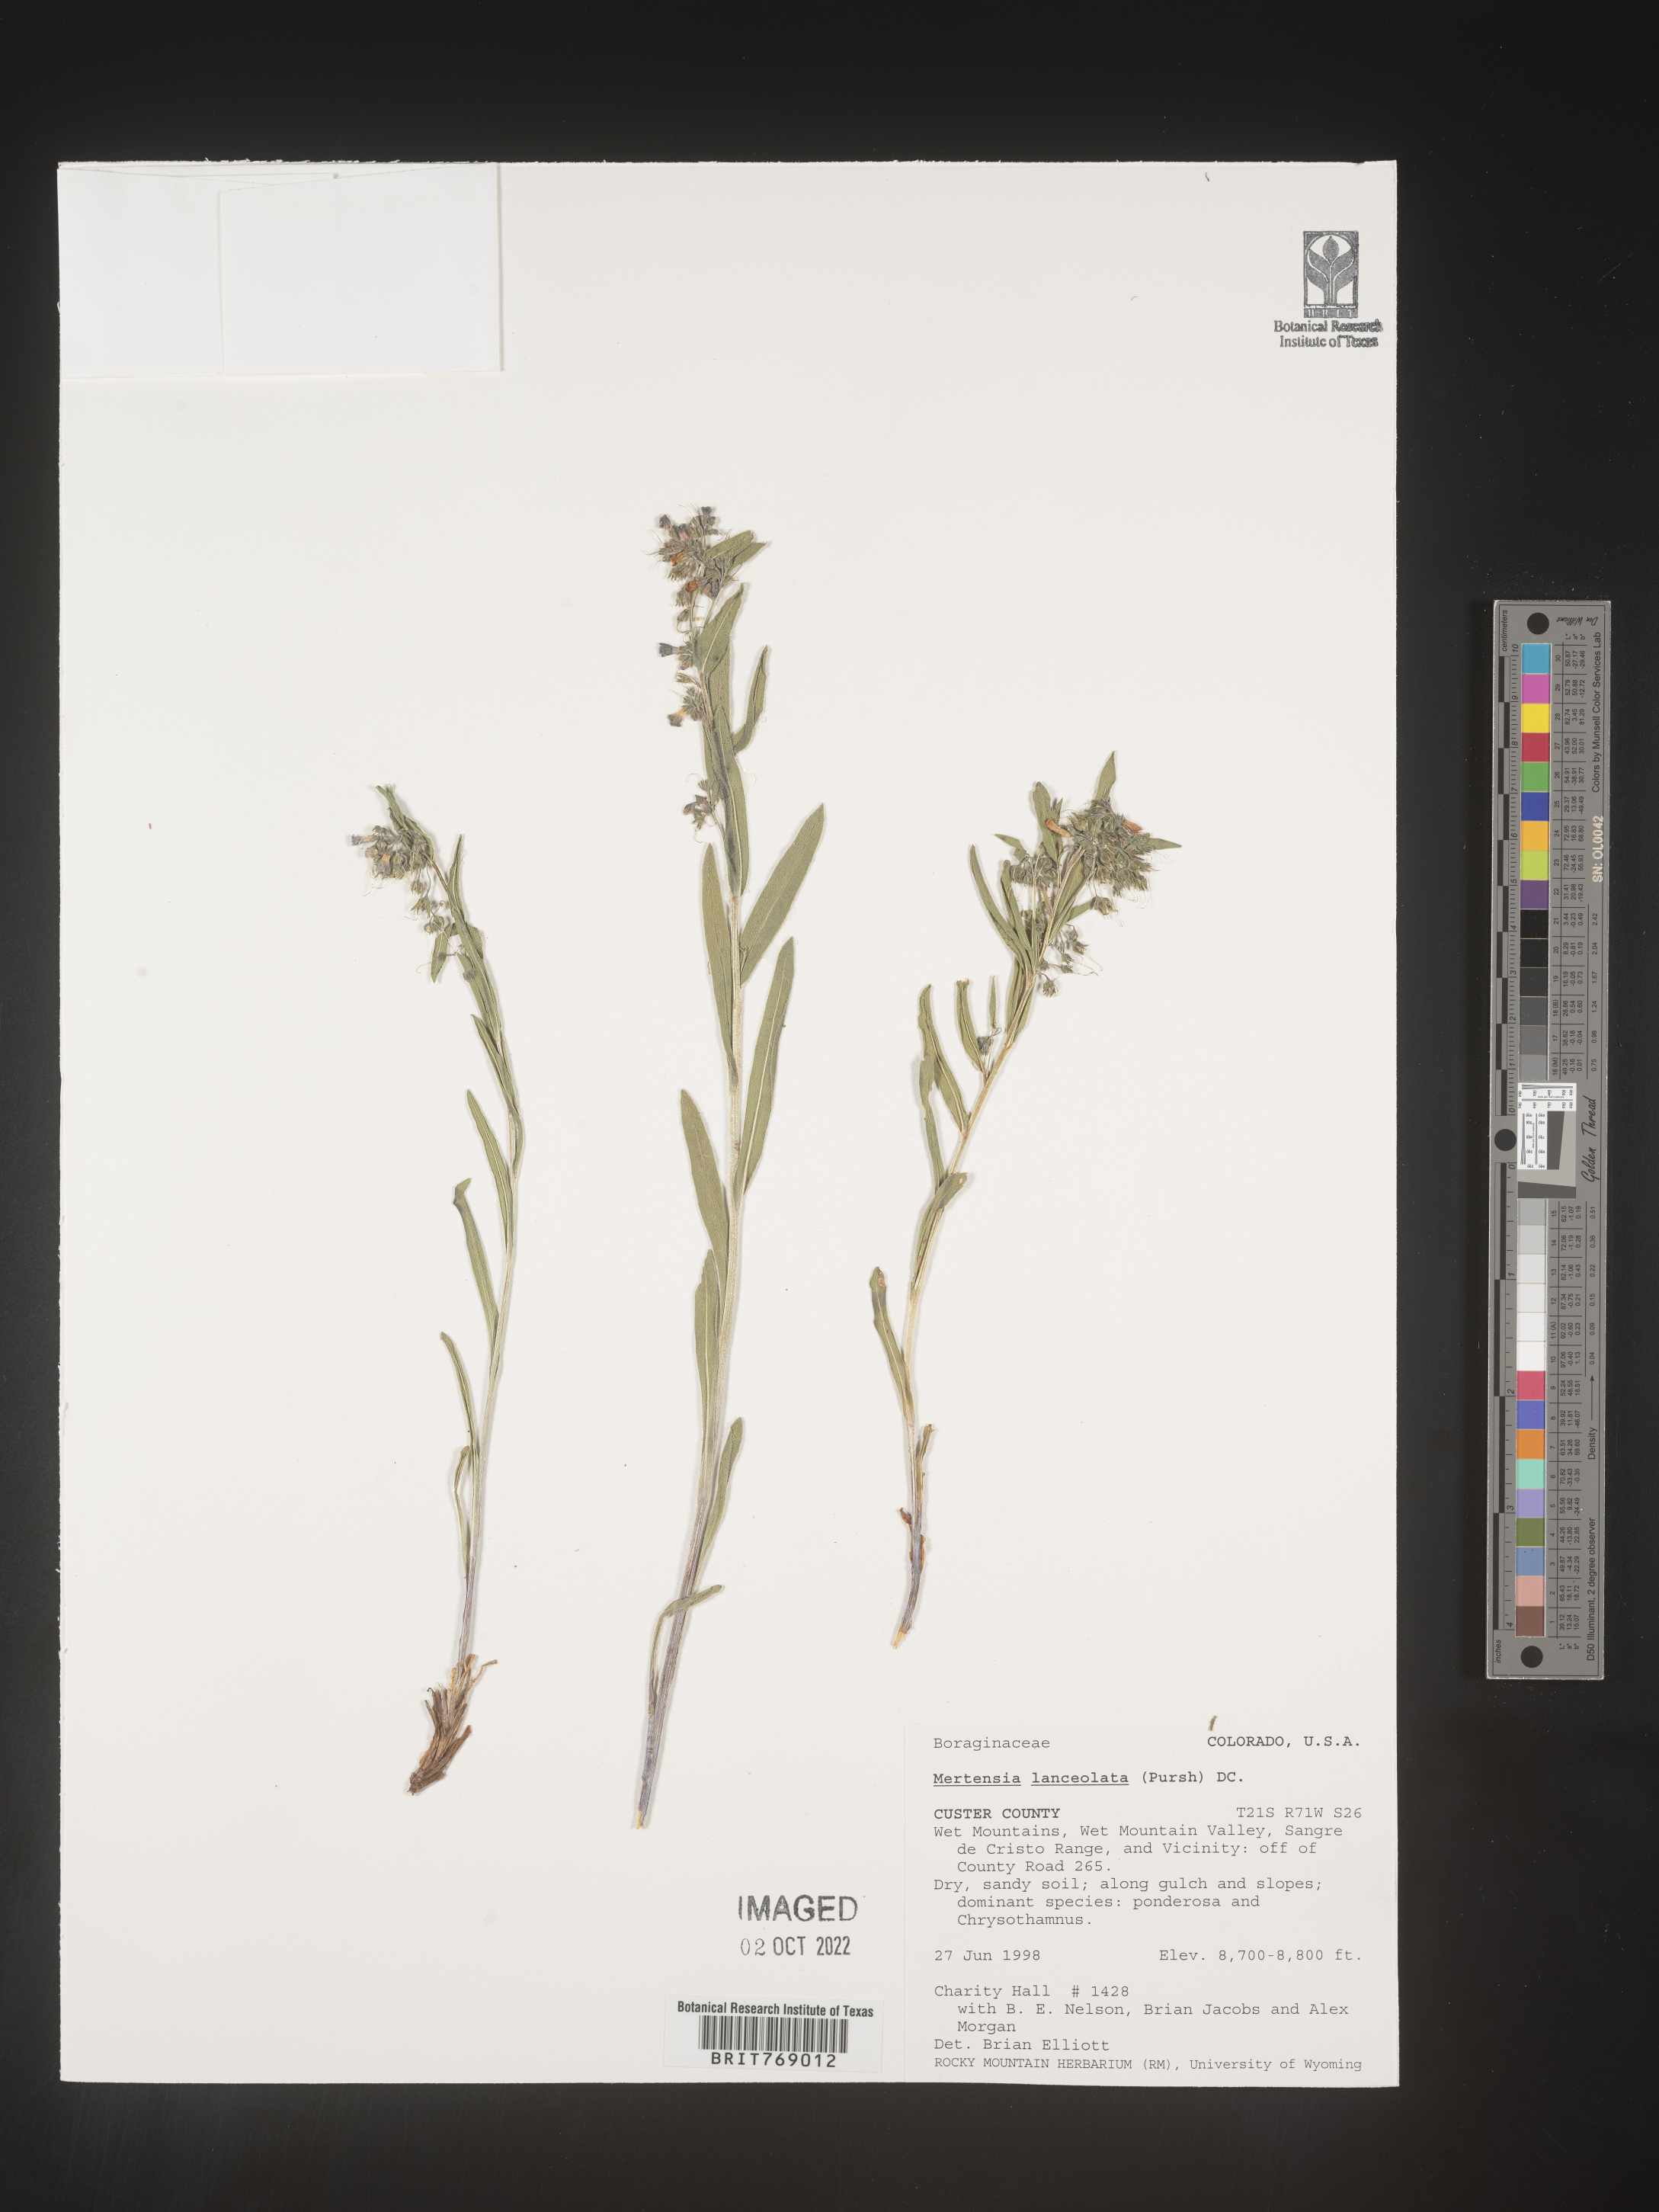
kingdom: Plantae
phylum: Tracheophyta
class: Magnoliopsida
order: Boraginales
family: Boraginaceae
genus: Mertensia
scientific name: Mertensia
